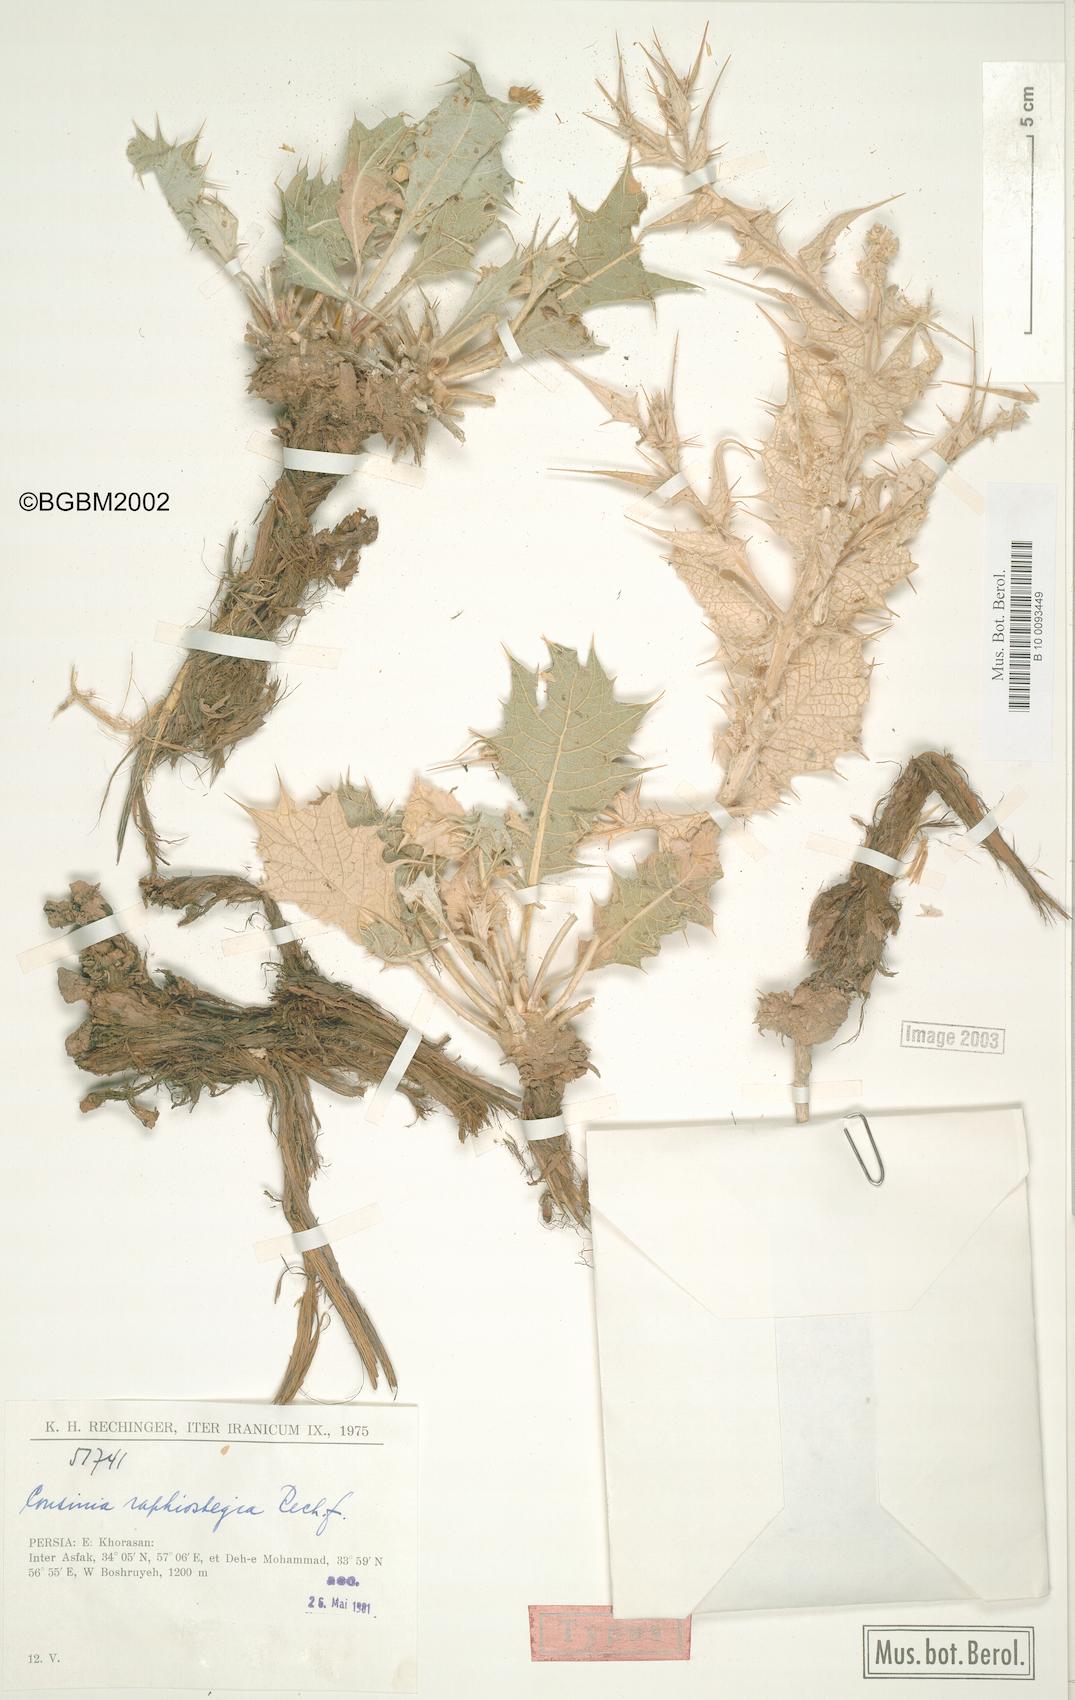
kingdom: Plantae
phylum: Tracheophyta
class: Magnoliopsida
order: Asterales
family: Asteraceae
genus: Cousinia
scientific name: Cousinia raphiostegia
